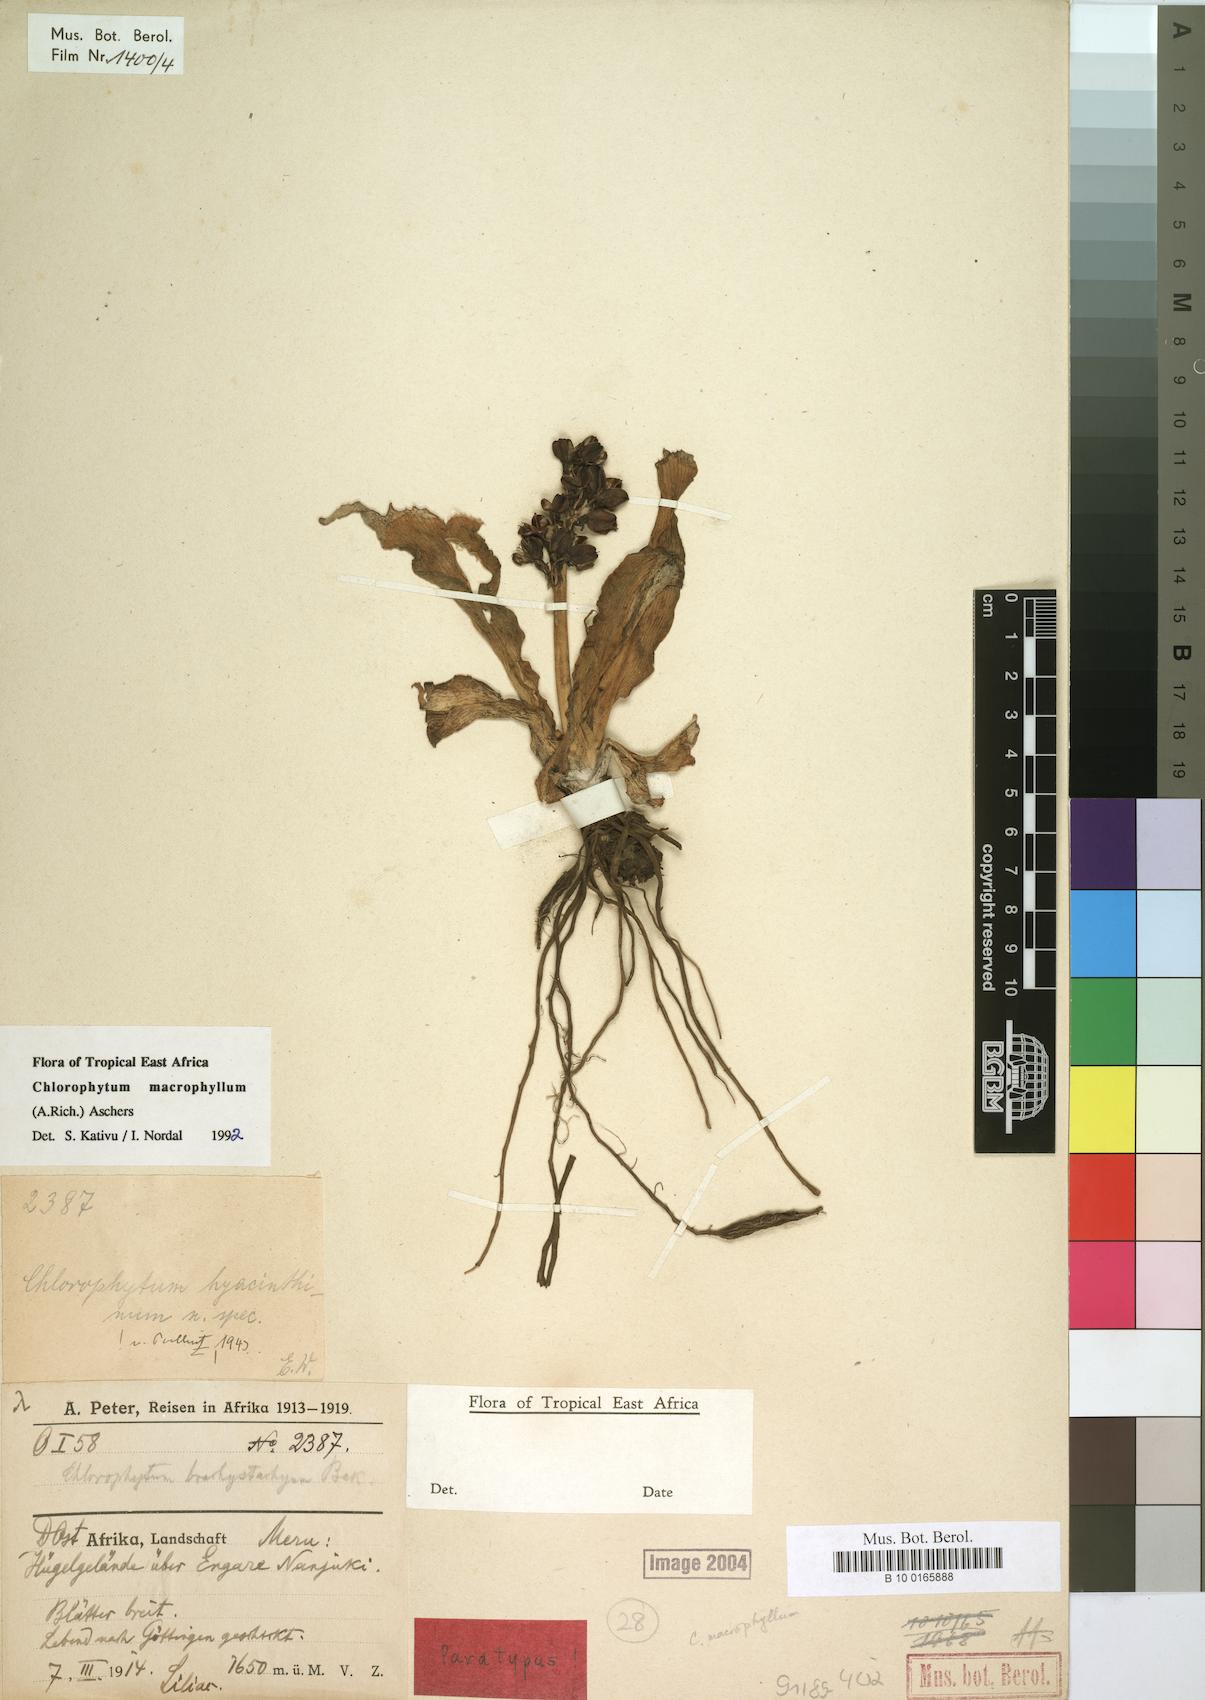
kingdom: Plantae
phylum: Tracheophyta
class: Liliopsida
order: Asparagales
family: Asparagaceae
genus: Chlorophytum
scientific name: Chlorophytum macrophyllum
